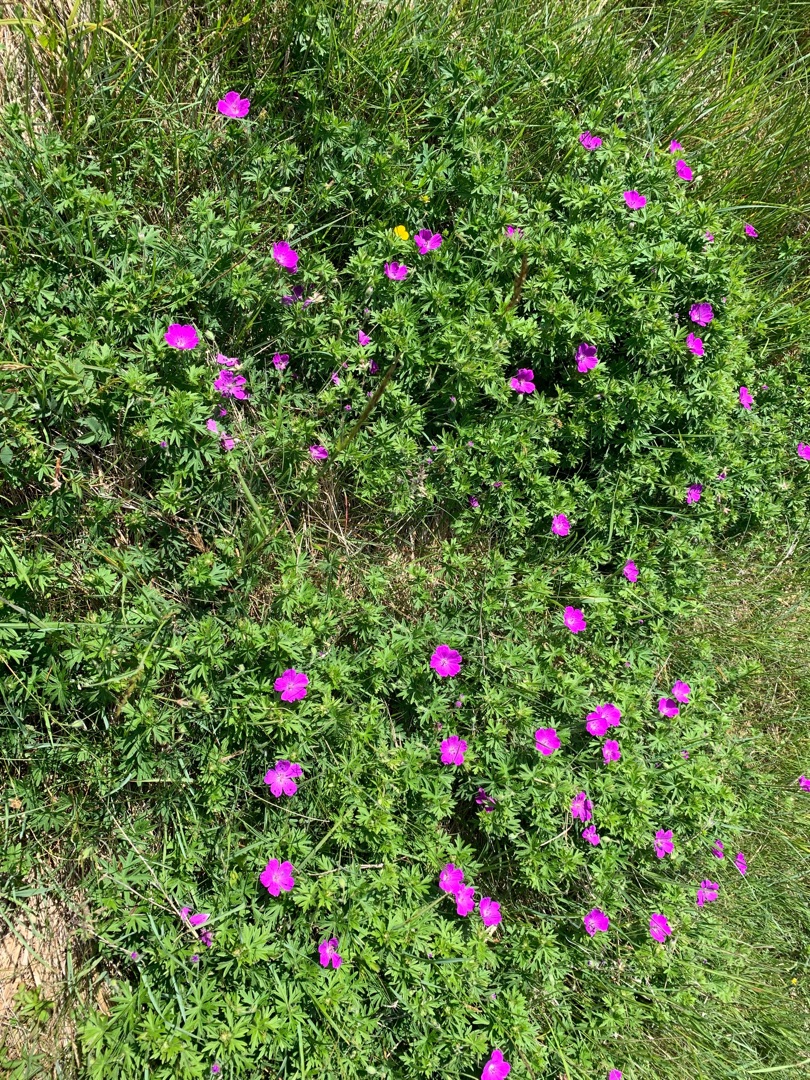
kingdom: Plantae
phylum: Tracheophyta
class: Magnoliopsida
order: Geraniales
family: Geraniaceae
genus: Geranium
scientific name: Geranium sanguineum
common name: Blodrød storkenæb
